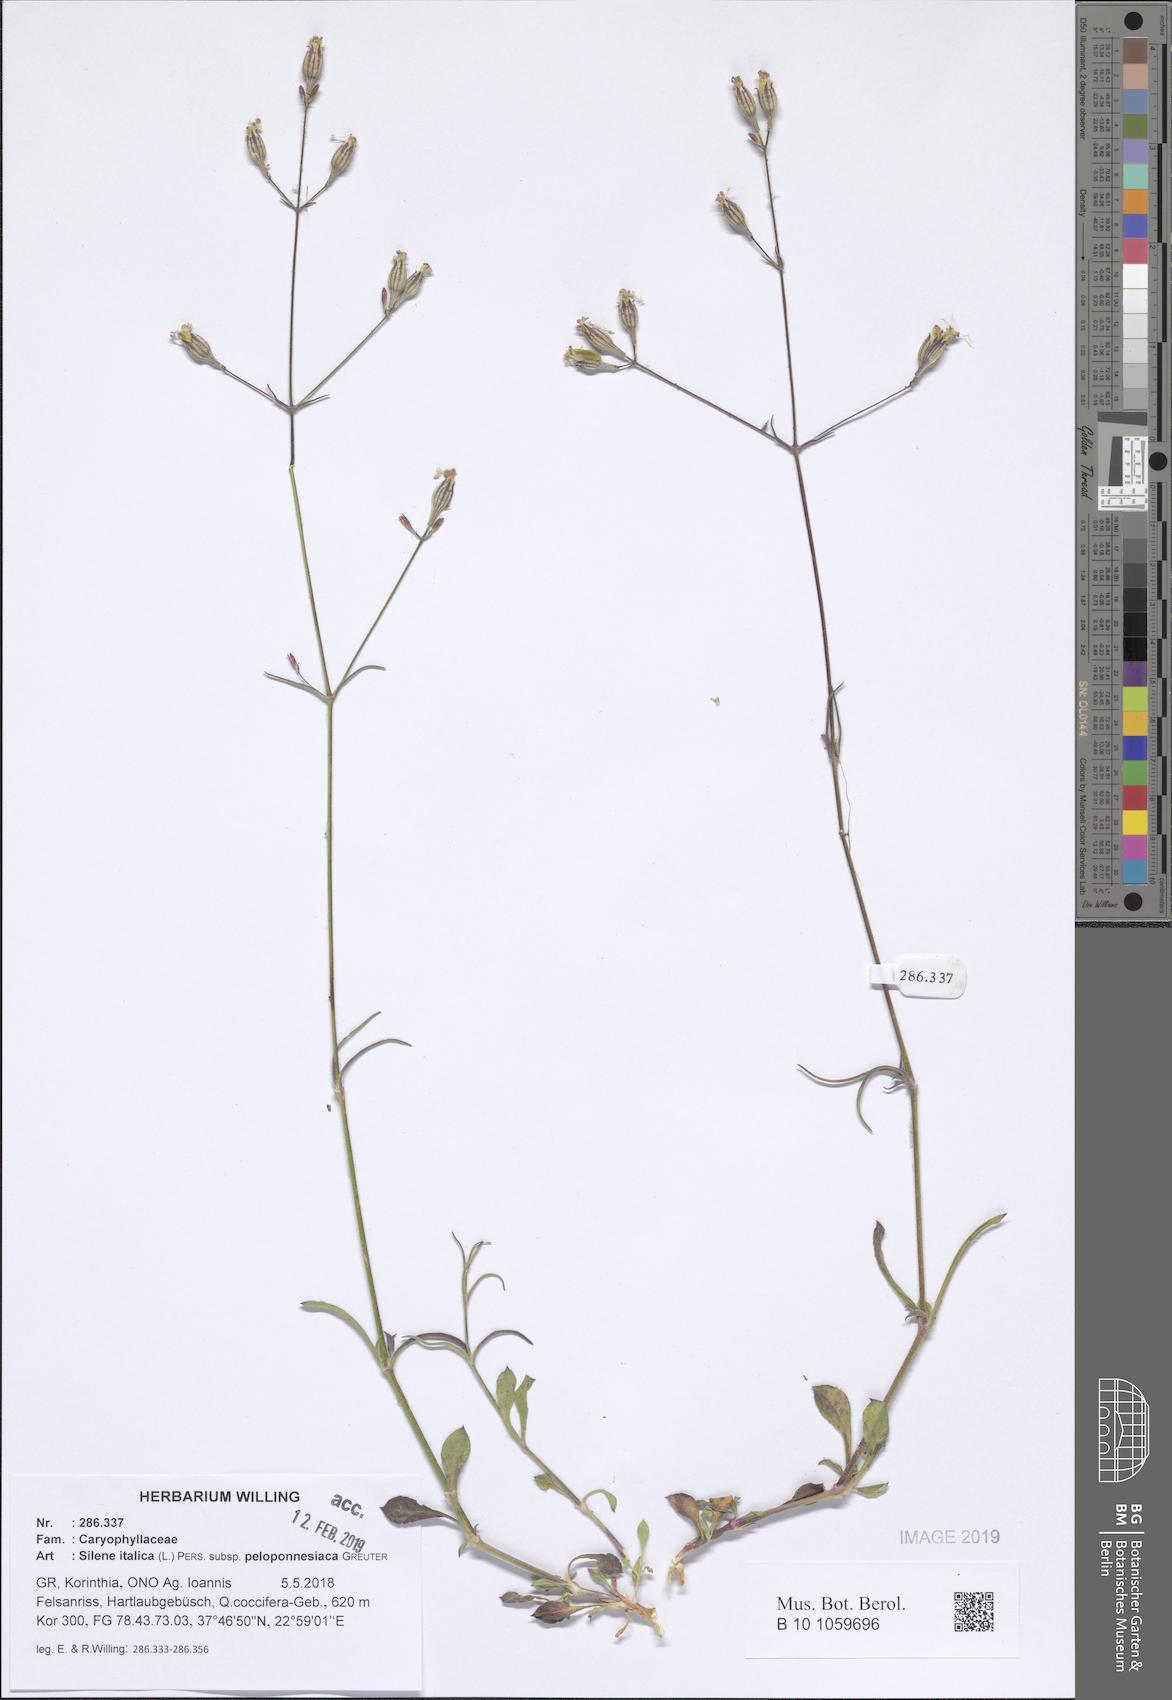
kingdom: Plantae
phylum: Tracheophyta
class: Magnoliopsida
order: Caryophyllales
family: Caryophyllaceae
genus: Silene
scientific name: Silene italica
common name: Italian catchfly
